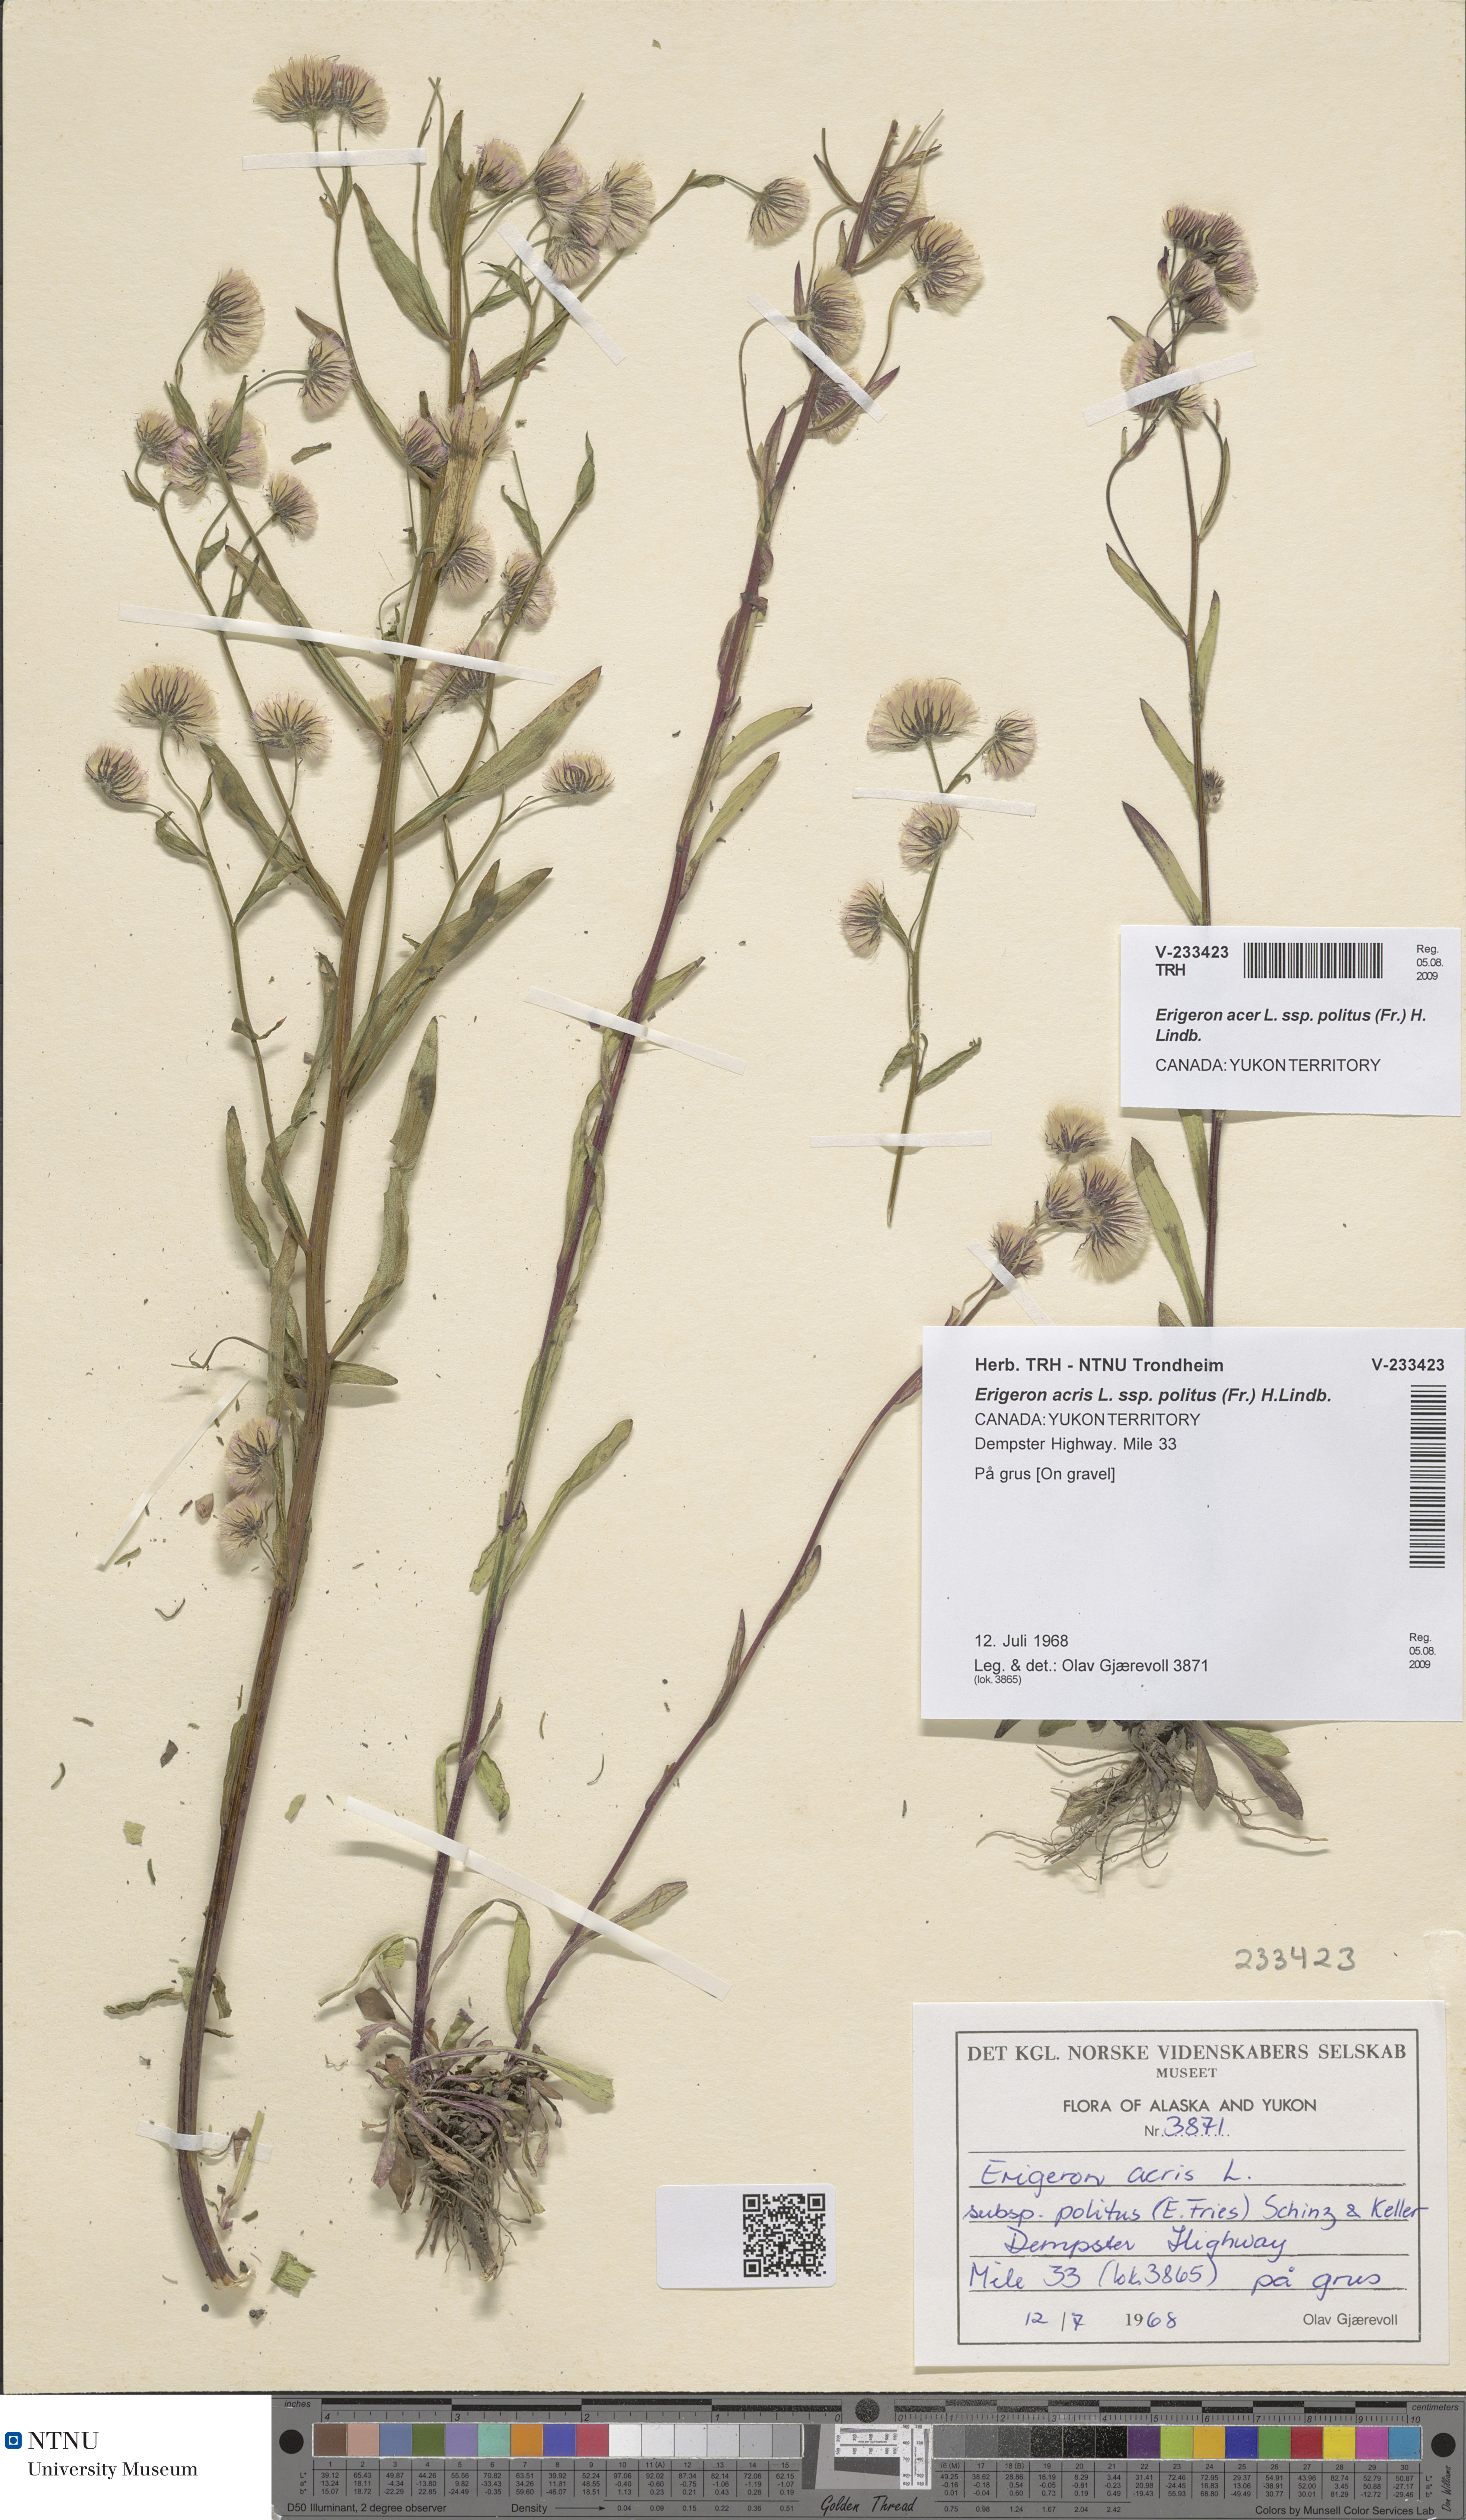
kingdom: Plantae
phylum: Tracheophyta
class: Magnoliopsida
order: Asterales
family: Asteraceae
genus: Erigeron
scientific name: Erigeron politus
